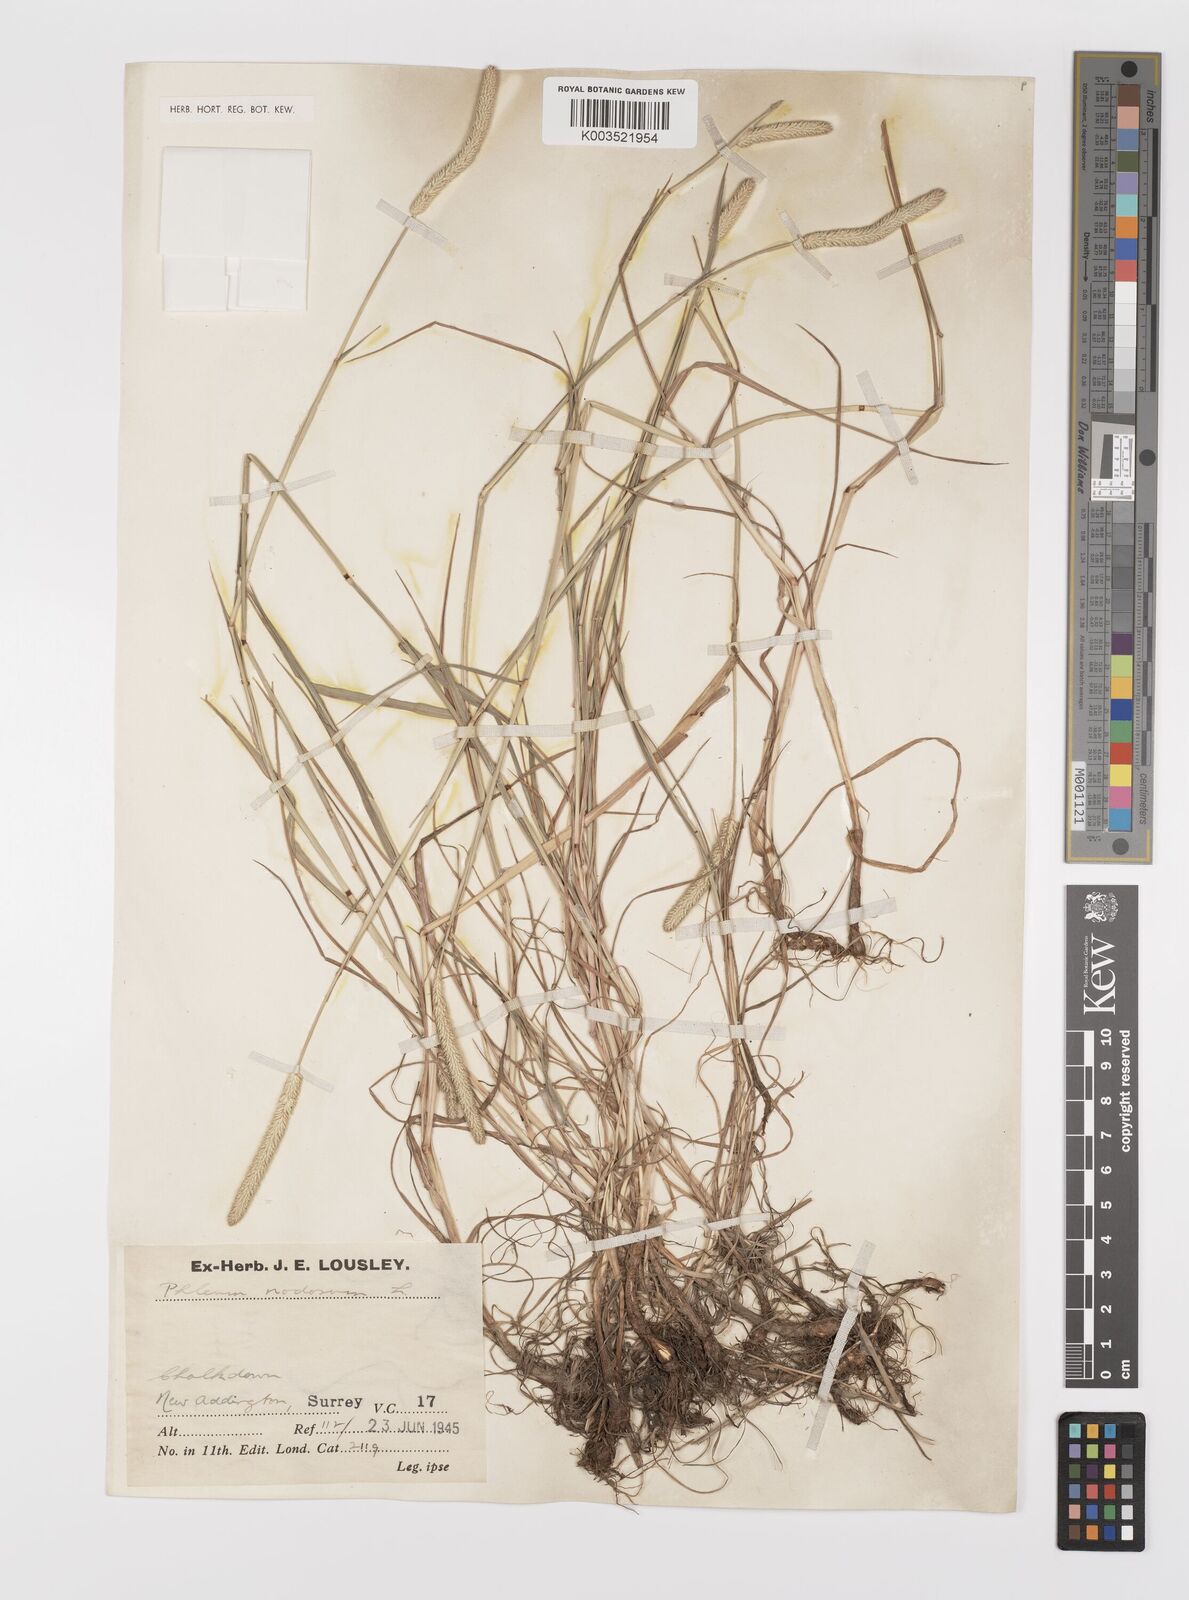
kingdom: Plantae
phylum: Tracheophyta
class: Liliopsida
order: Poales
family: Poaceae
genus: Phleum
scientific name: Phleum bertolonii
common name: Smaller cat's-tail
